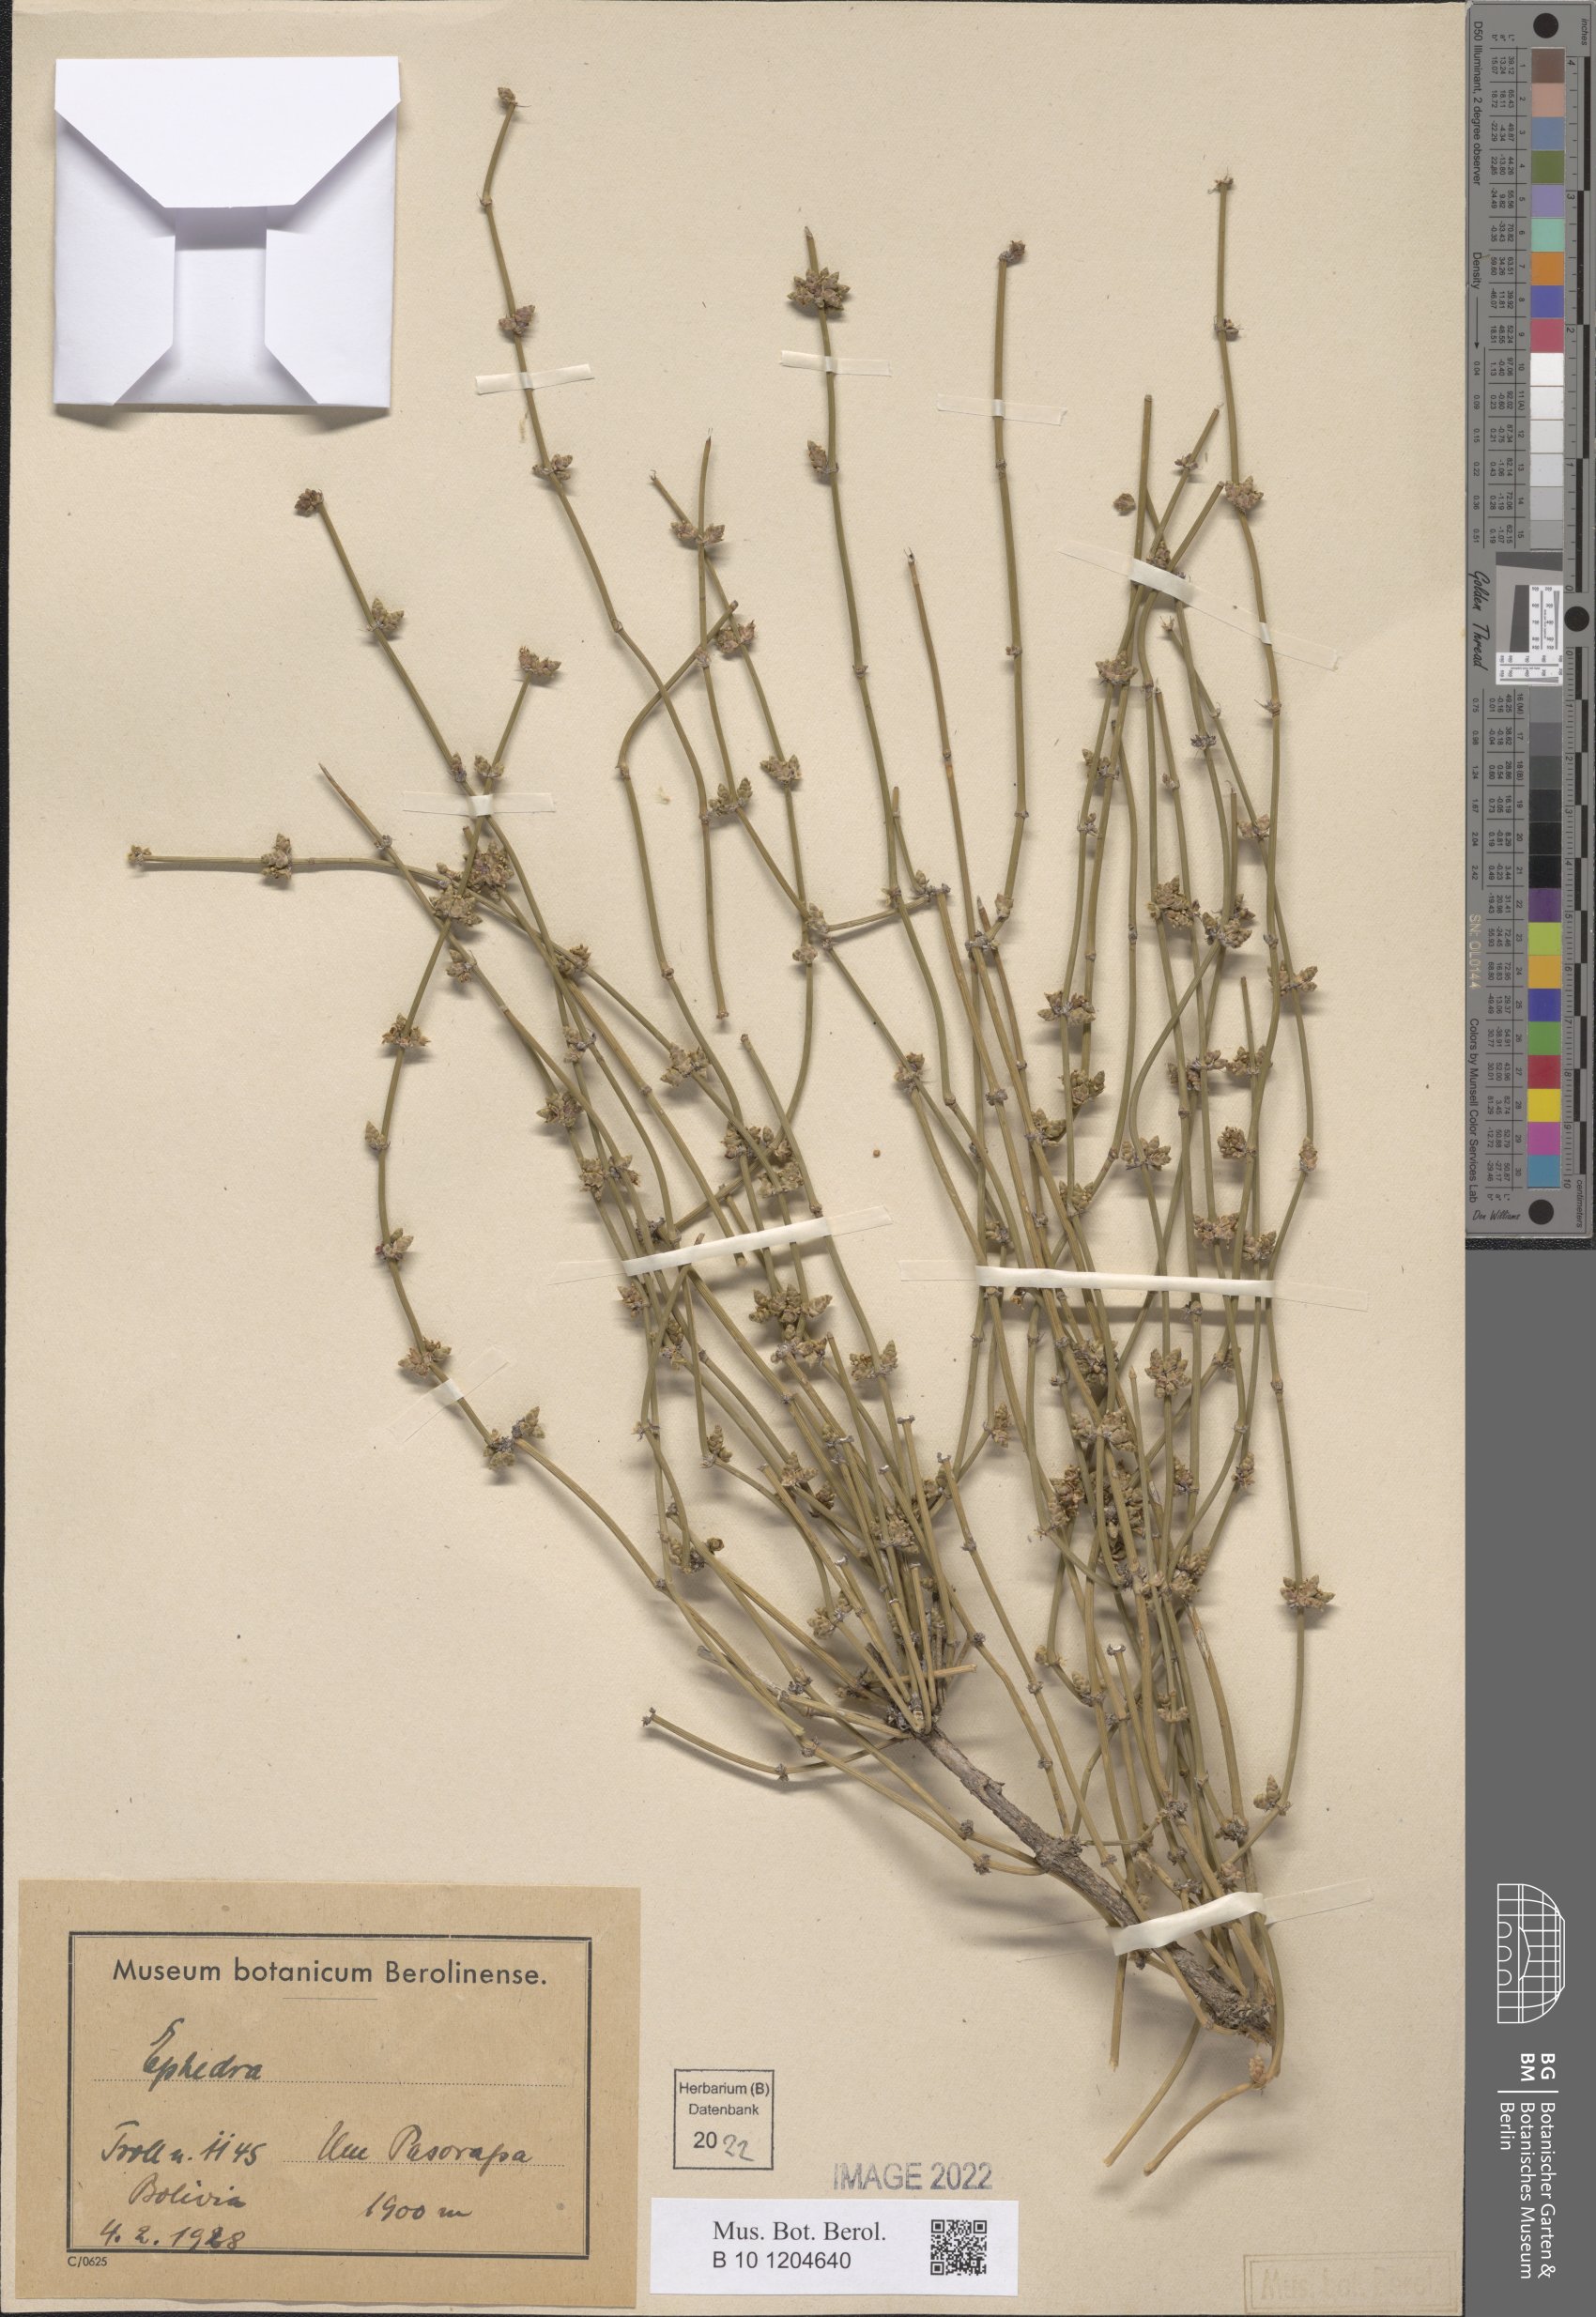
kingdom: Plantae
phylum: Tracheophyta
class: Gnetopsida
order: Ephedrales
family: Ephedraceae
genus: Ephedra
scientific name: Ephedra
